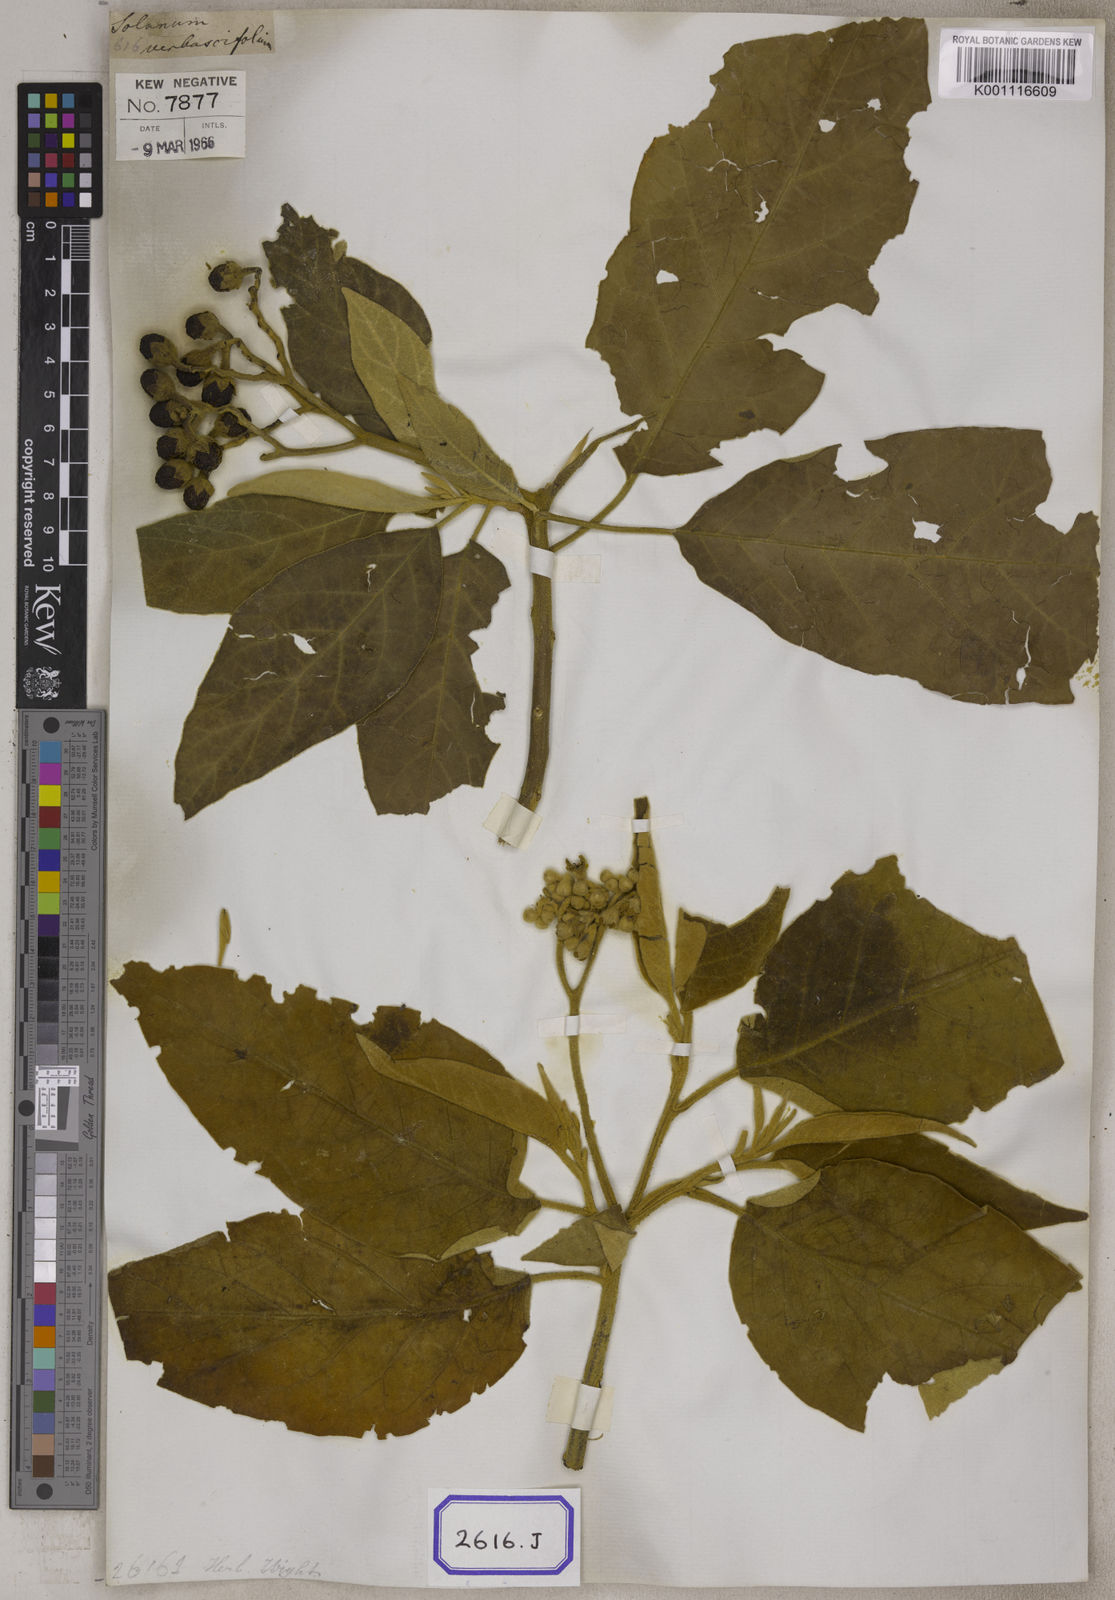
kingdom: Plantae
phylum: Tracheophyta
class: Magnoliopsida
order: Solanales
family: Solanaceae
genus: Solanum
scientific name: Solanum donianum
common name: Mullein nightshade
